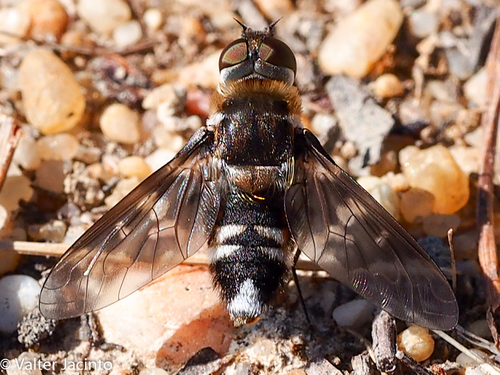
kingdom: Animalia
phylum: Arthropoda
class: Insecta
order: Diptera
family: Bombyliidae
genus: Thyridanthrax
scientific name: Thyridanthrax perspicillaris
